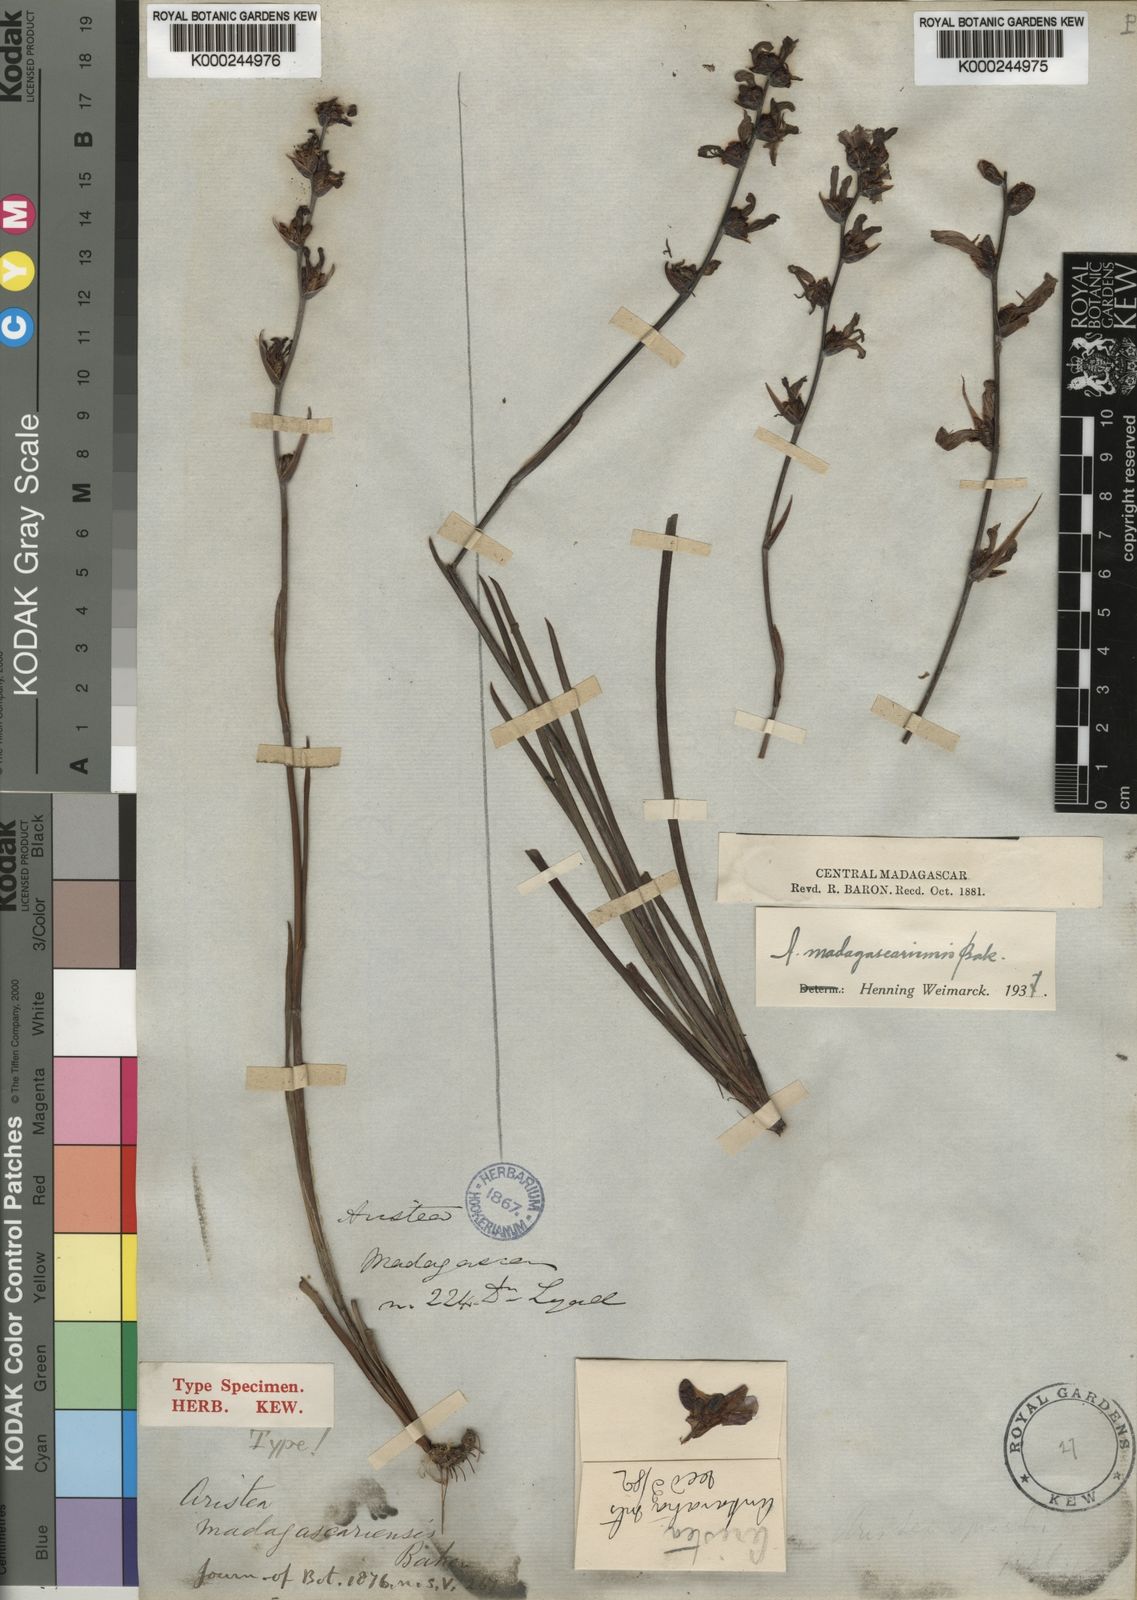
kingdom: Plantae
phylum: Tracheophyta
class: Liliopsida
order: Asparagales
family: Iridaceae
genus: Aristea
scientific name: Aristea madagascariensis
